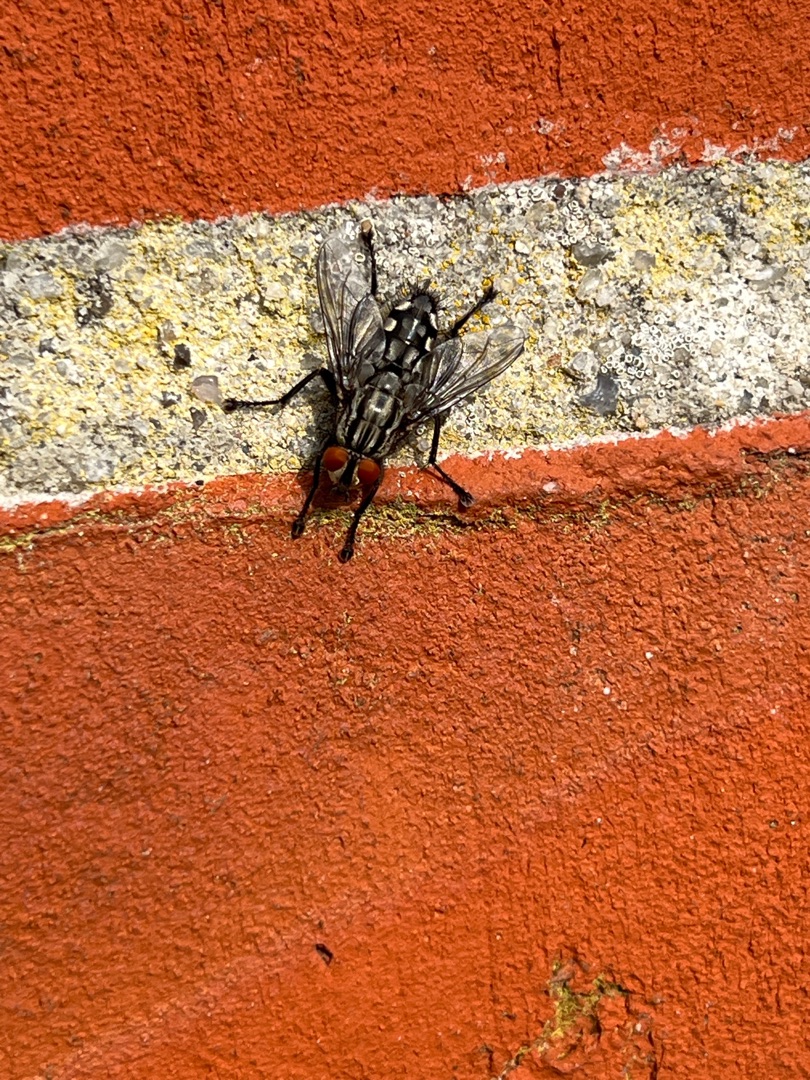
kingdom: Animalia
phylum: Arthropoda
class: Insecta
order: Diptera
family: Sarcophagidae
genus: Sarcophaga
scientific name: Sarcophaga
